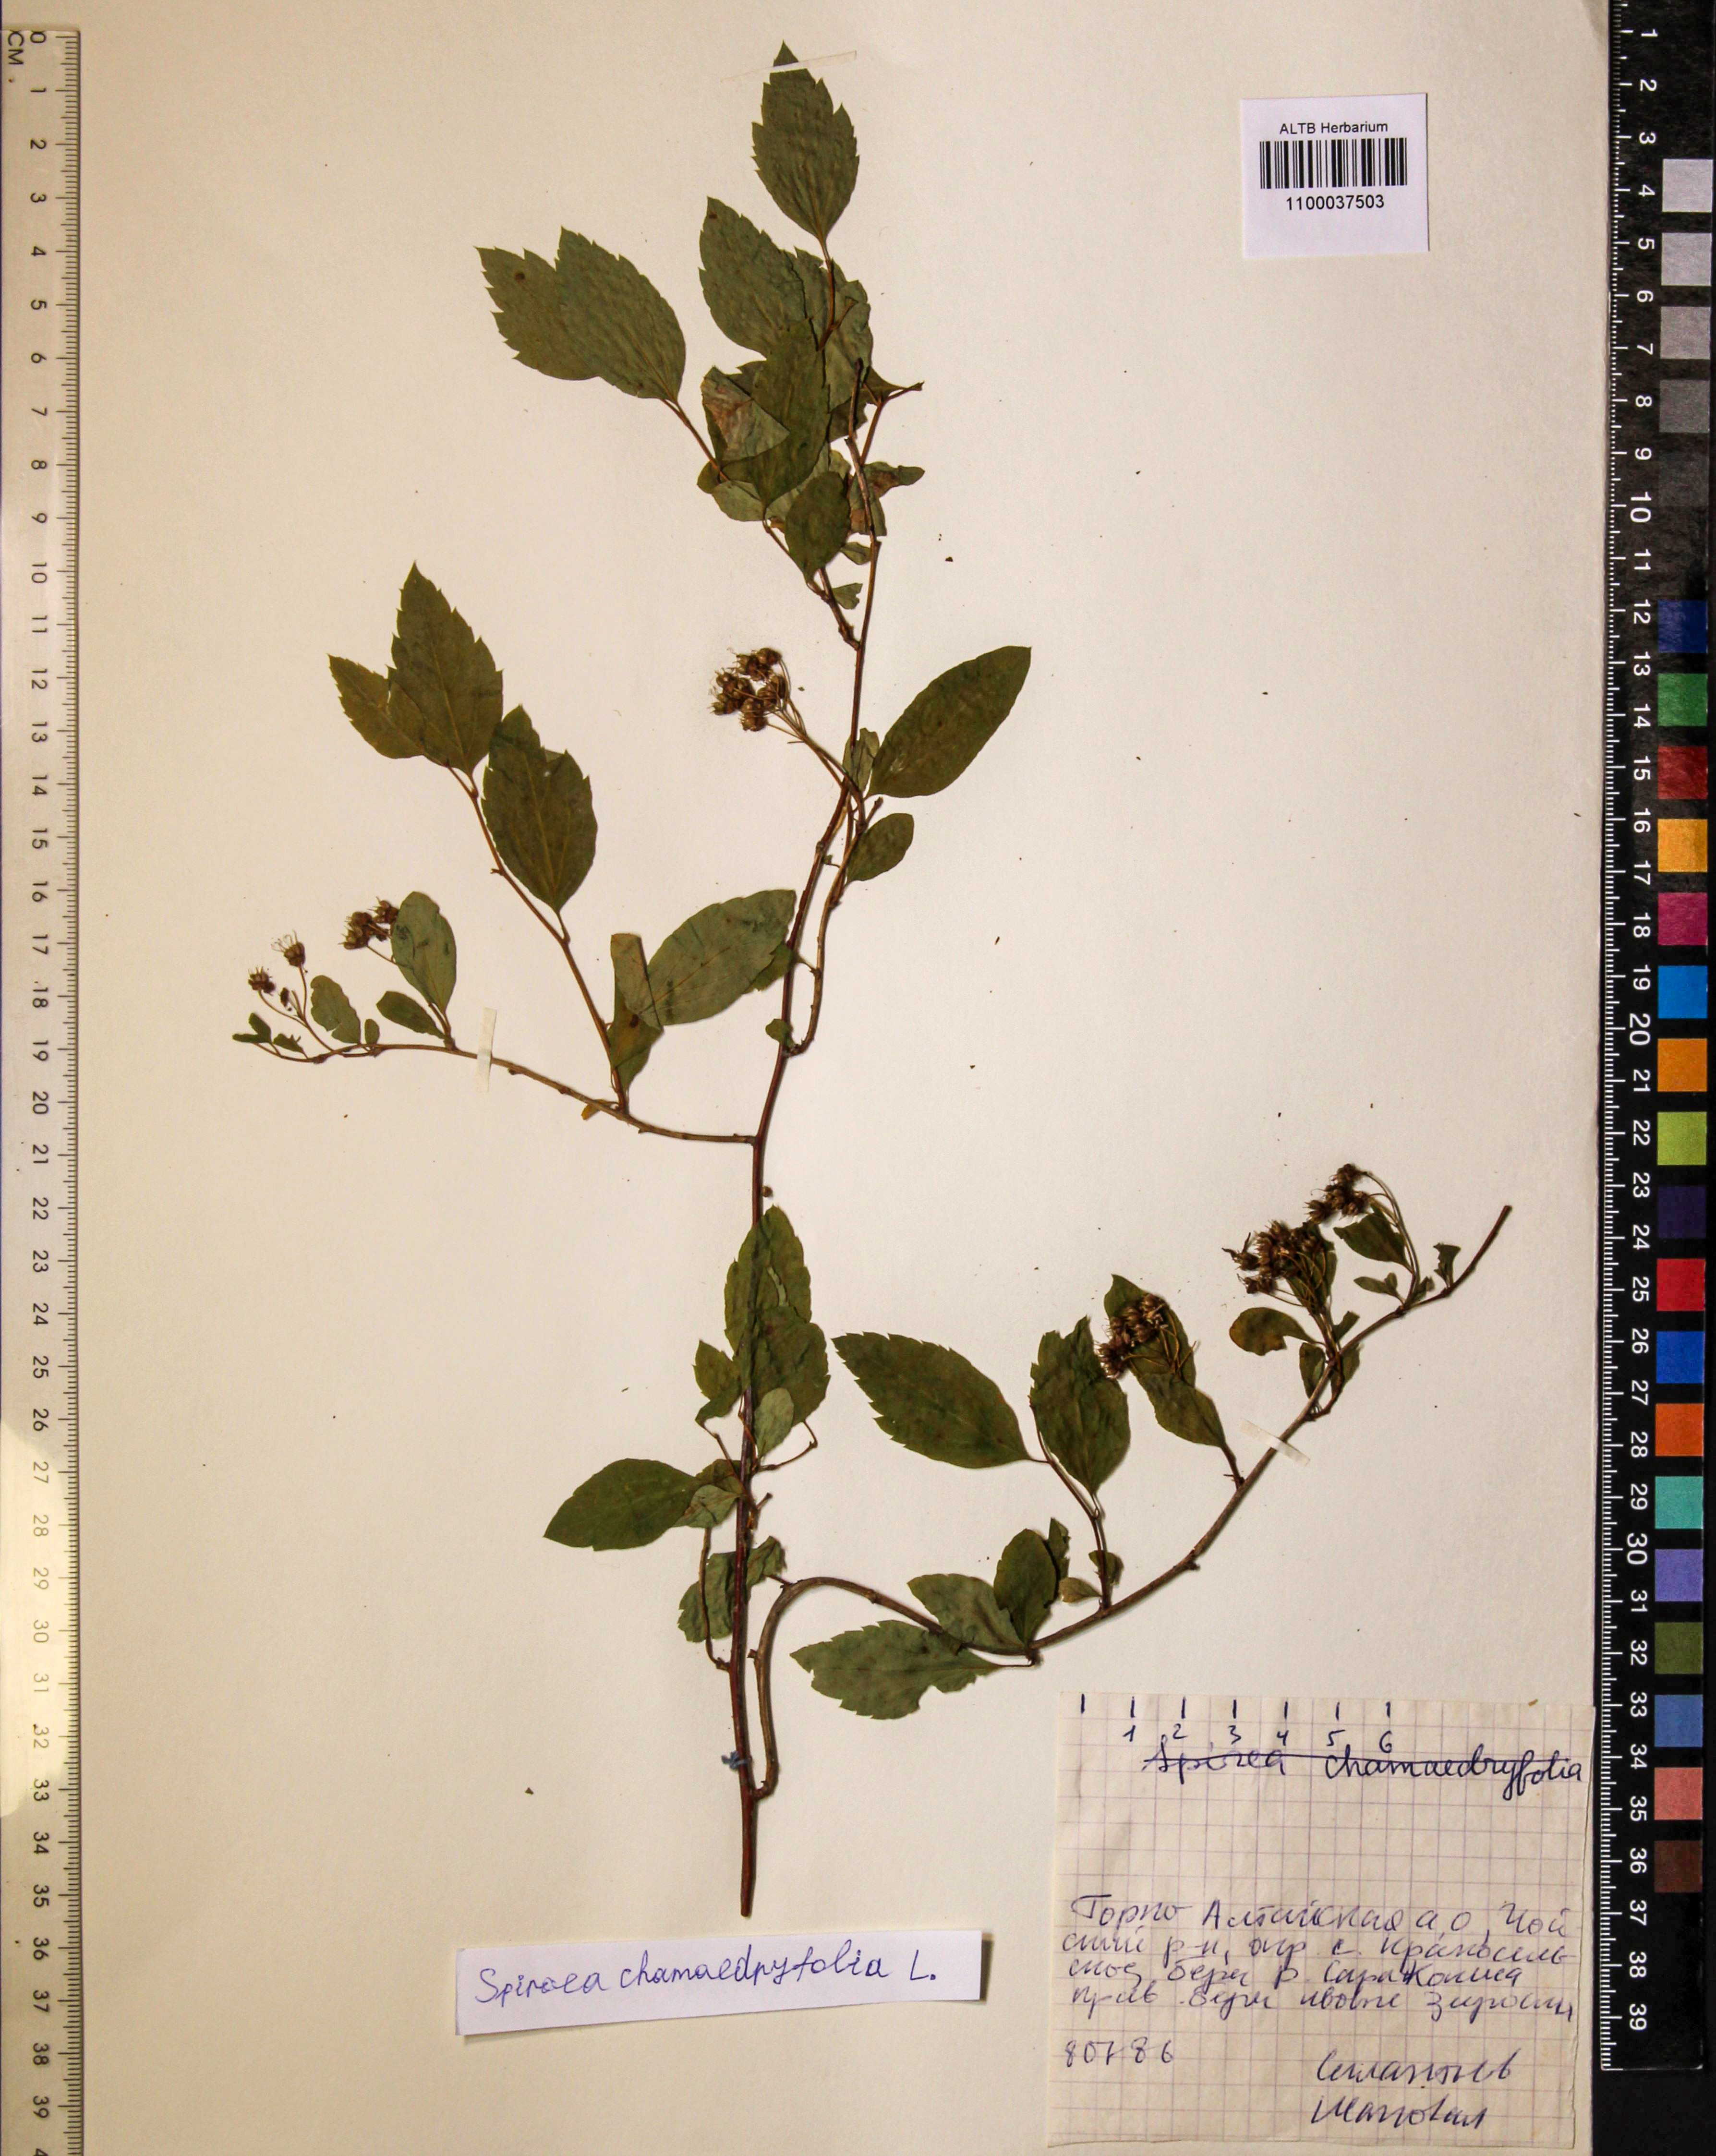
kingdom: Plantae
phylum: Tracheophyta
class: Magnoliopsida
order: Rosales
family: Rosaceae
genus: Spiraea
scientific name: Spiraea chamaedryfolia
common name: Elm-leaved spiraea
